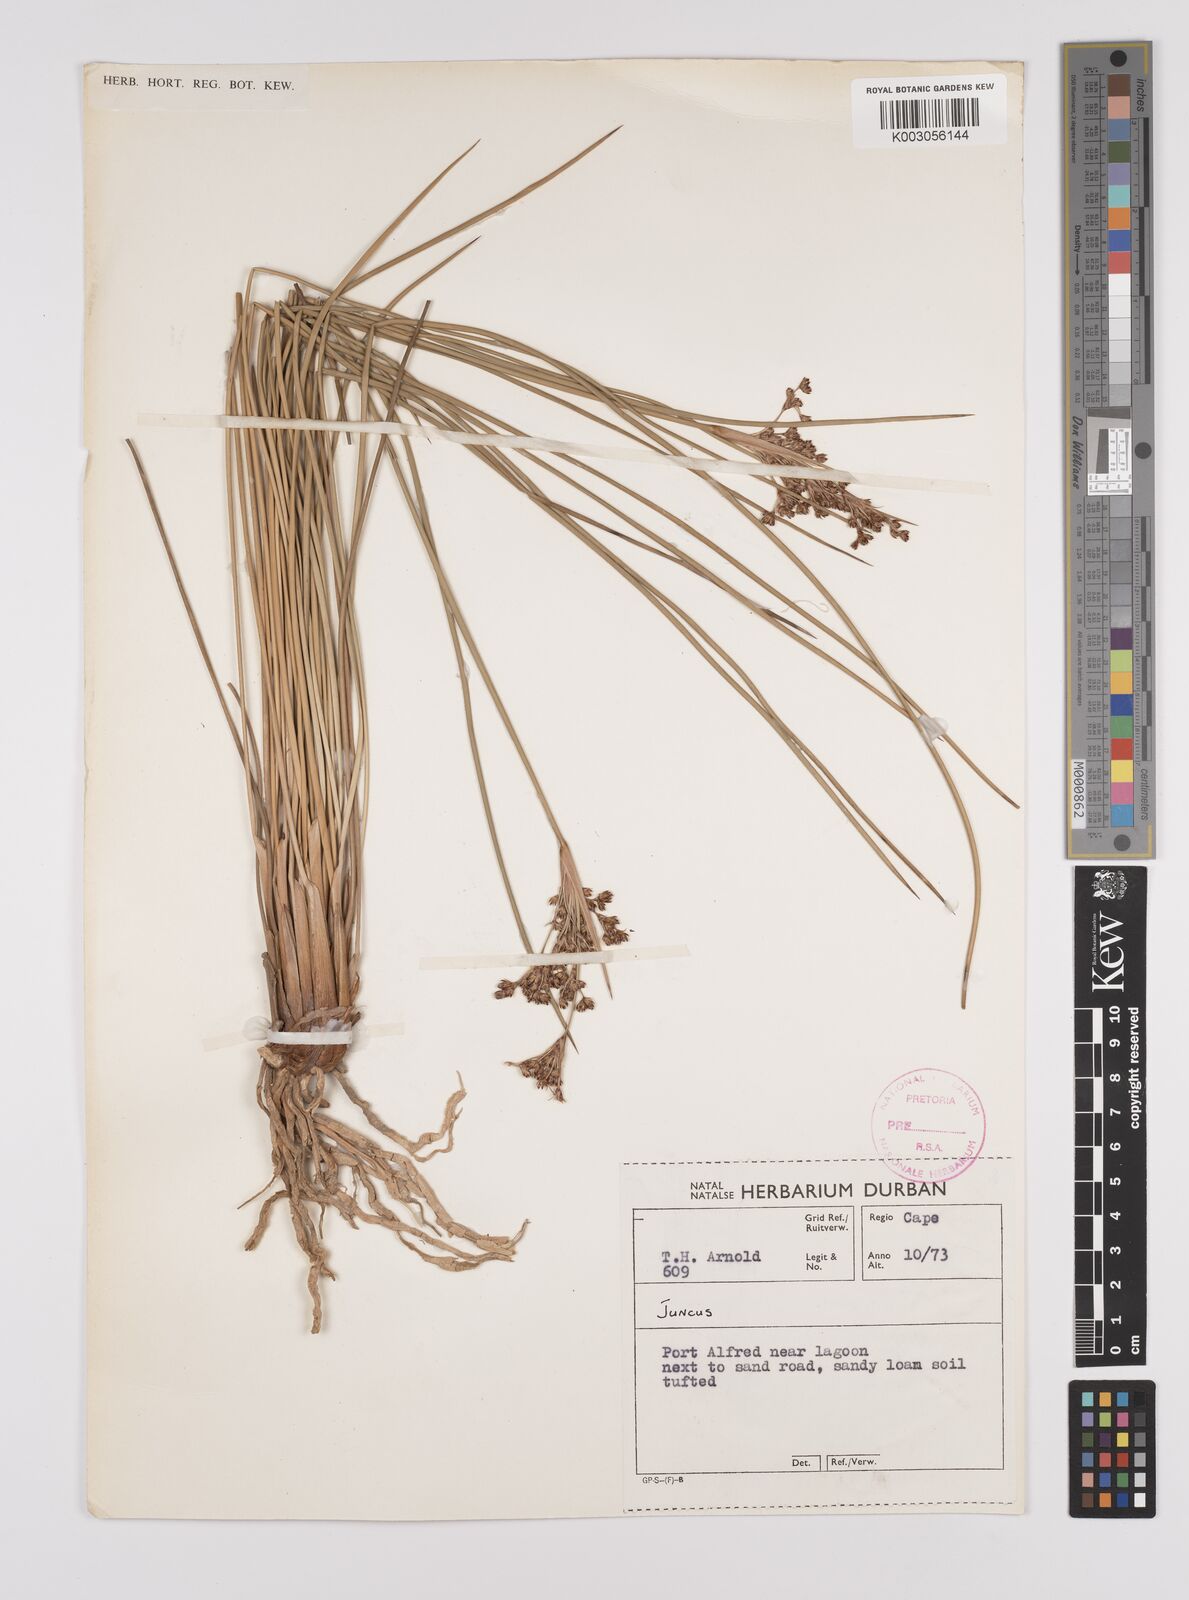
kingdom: Plantae
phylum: Tracheophyta
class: Liliopsida
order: Poales
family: Juncaceae
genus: Juncus
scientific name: Juncus
